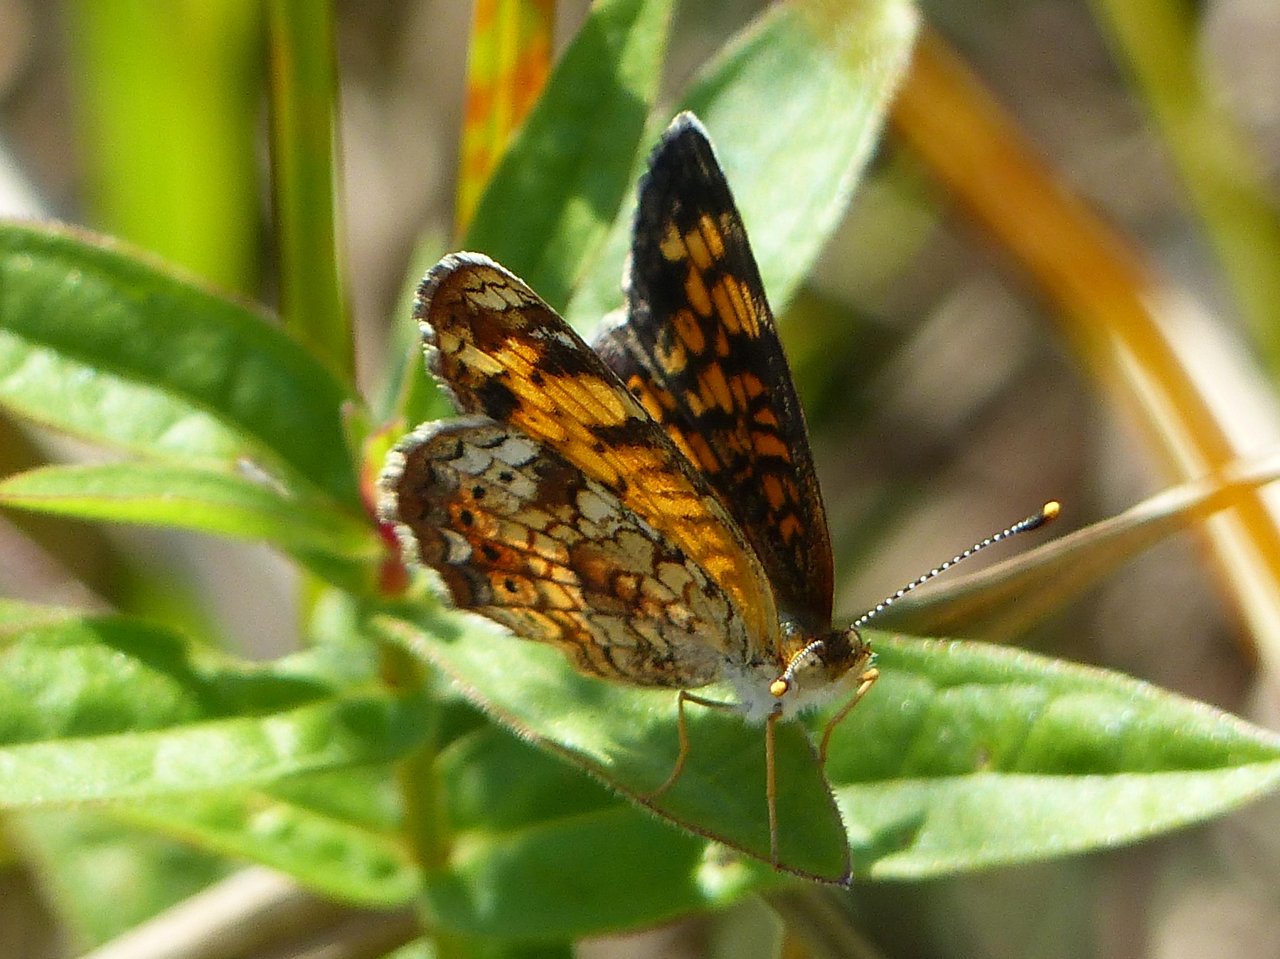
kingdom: Animalia
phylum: Arthropoda
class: Insecta
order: Lepidoptera
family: Nymphalidae
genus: Phyciodes
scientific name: Phyciodes tharos
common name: Pearl Crescent
